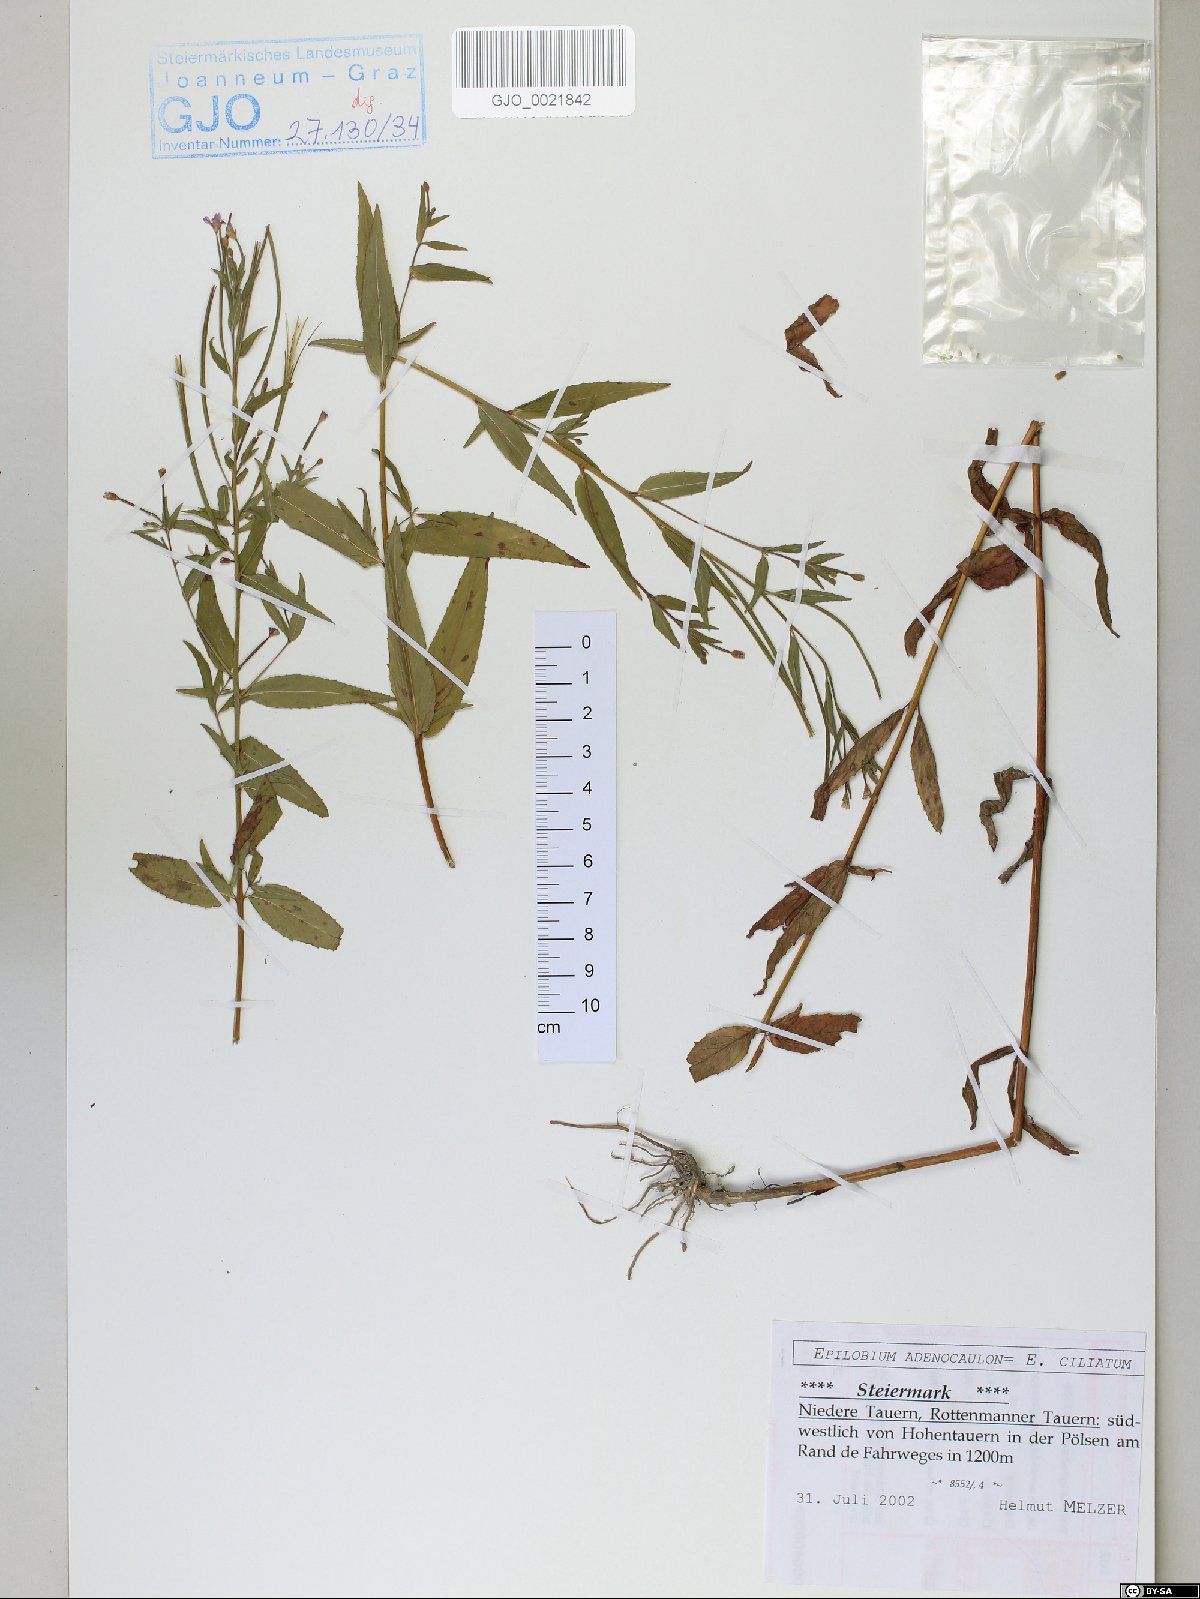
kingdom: Plantae
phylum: Tracheophyta
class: Magnoliopsida
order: Myrtales
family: Onagraceae
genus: Epilobium
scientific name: Epilobium ciliatum
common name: American willowherb
